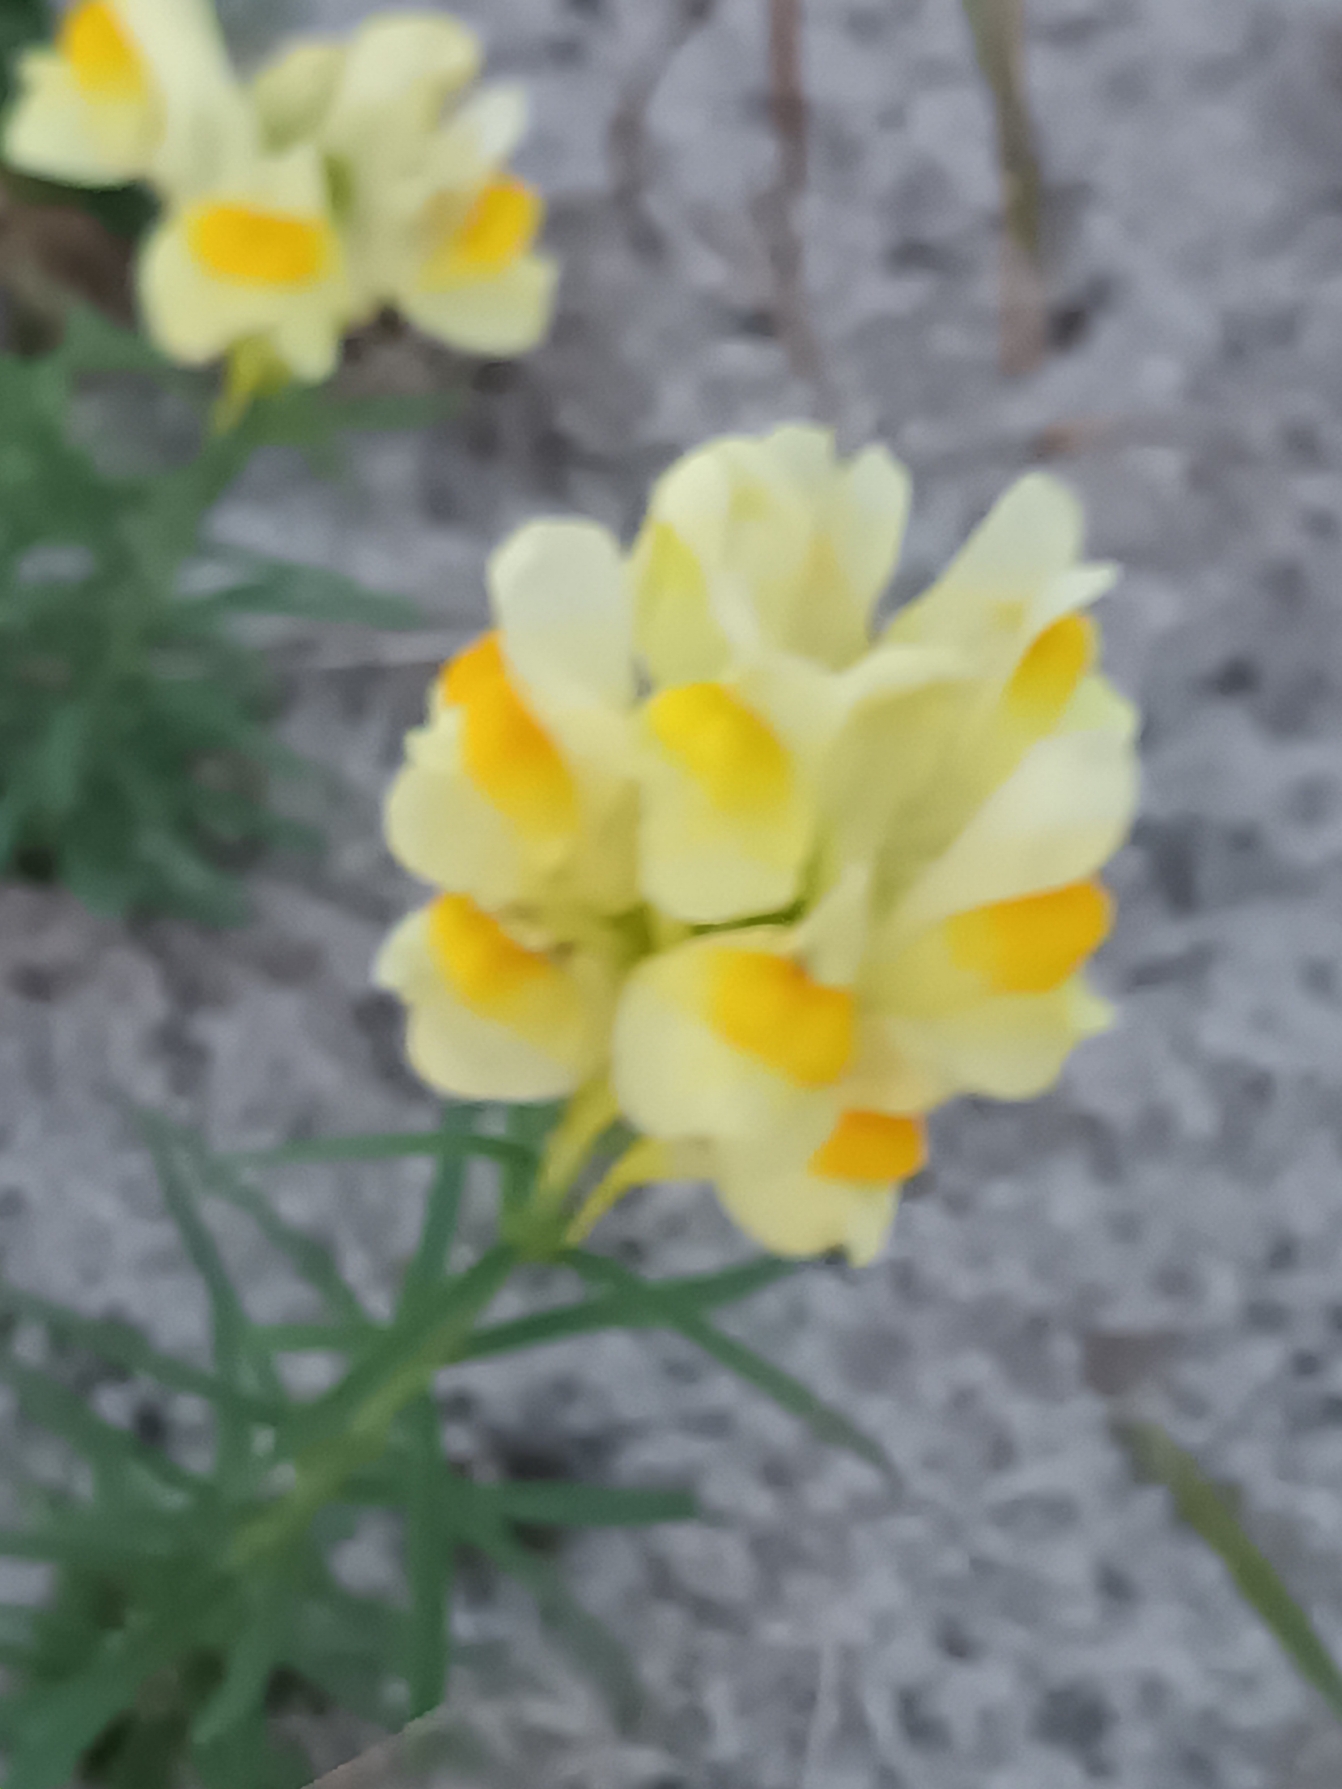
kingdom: Plantae
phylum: Tracheophyta
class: Magnoliopsida
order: Lamiales
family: Plantaginaceae
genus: Linaria
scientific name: Linaria vulgaris
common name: Almindelig torskemund
